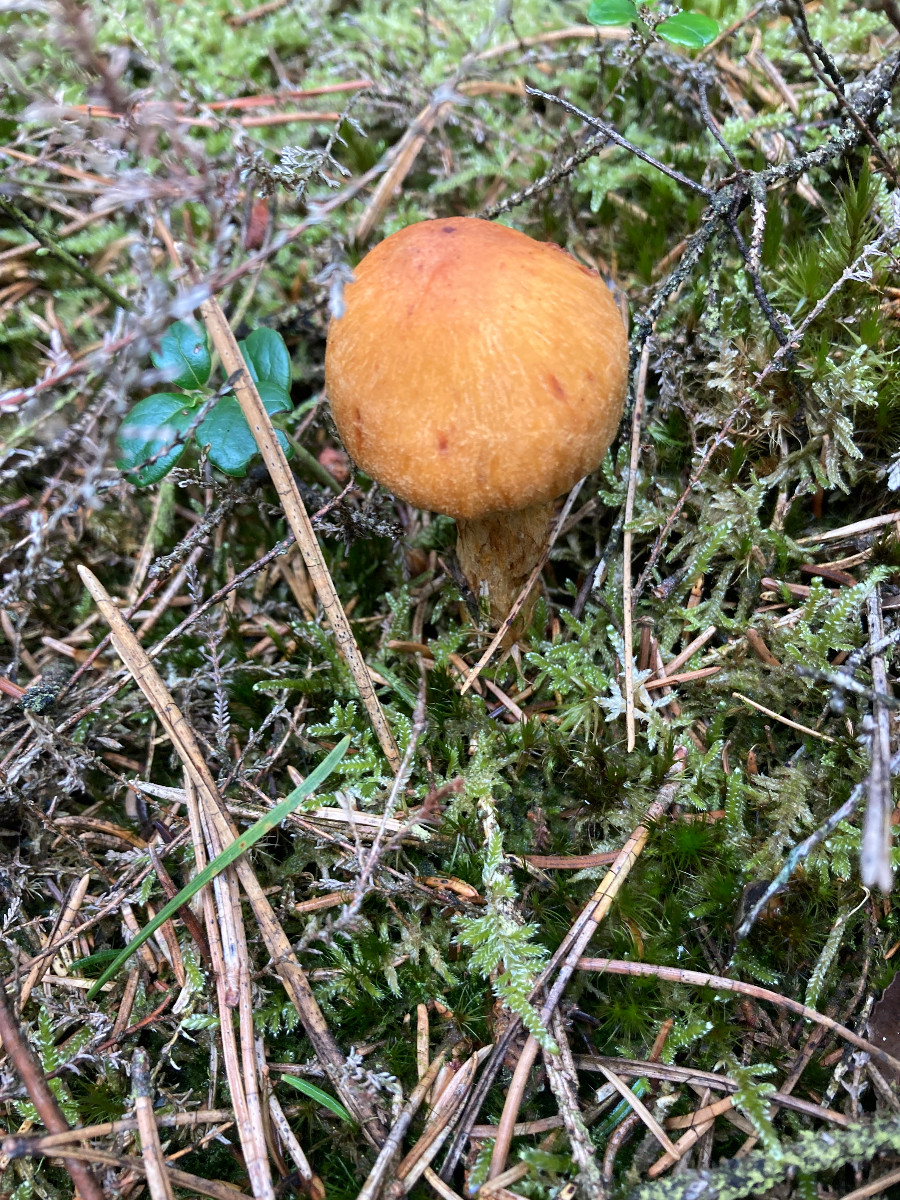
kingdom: Fungi
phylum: Basidiomycota
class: Agaricomycetes
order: Agaricales
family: Cortinariaceae
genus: Aureonarius
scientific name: Aureonarius limonius
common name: orangegul slørhat
